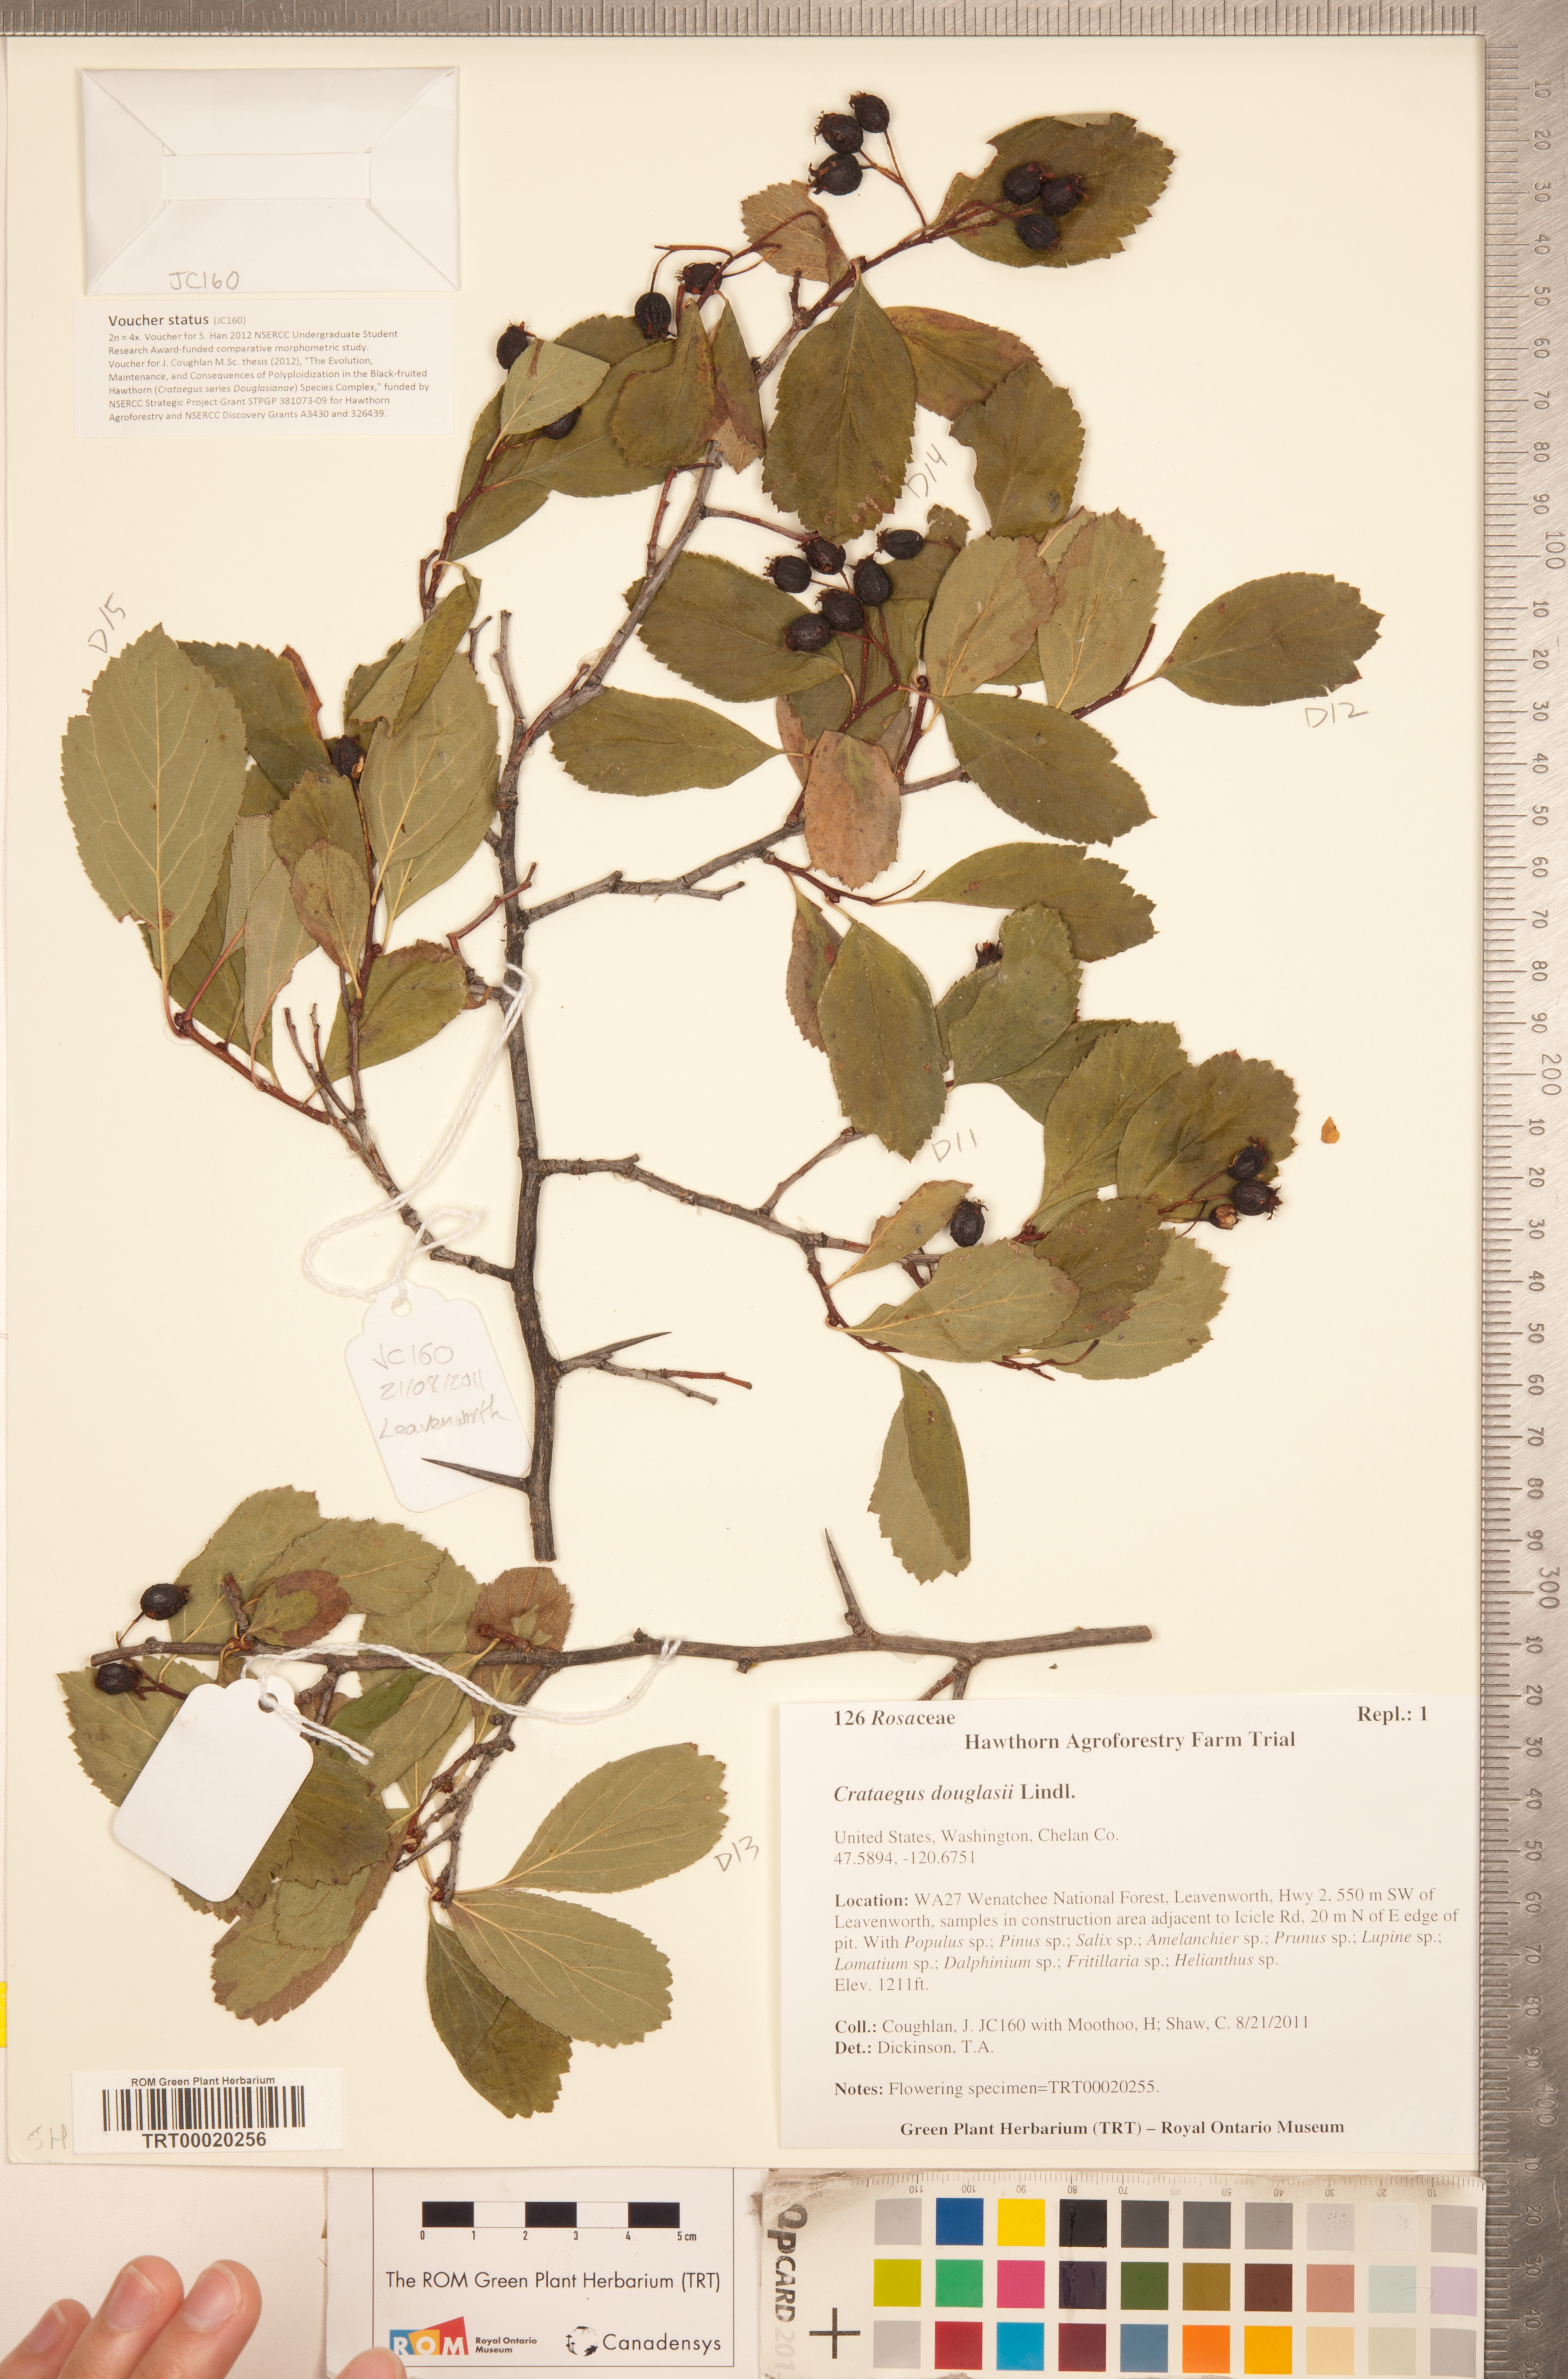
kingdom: Plantae
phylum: Tracheophyta
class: Magnoliopsida
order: Rosales
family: Rosaceae
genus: Crataegus
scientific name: Crataegus douglasii
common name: Black hawthorn
